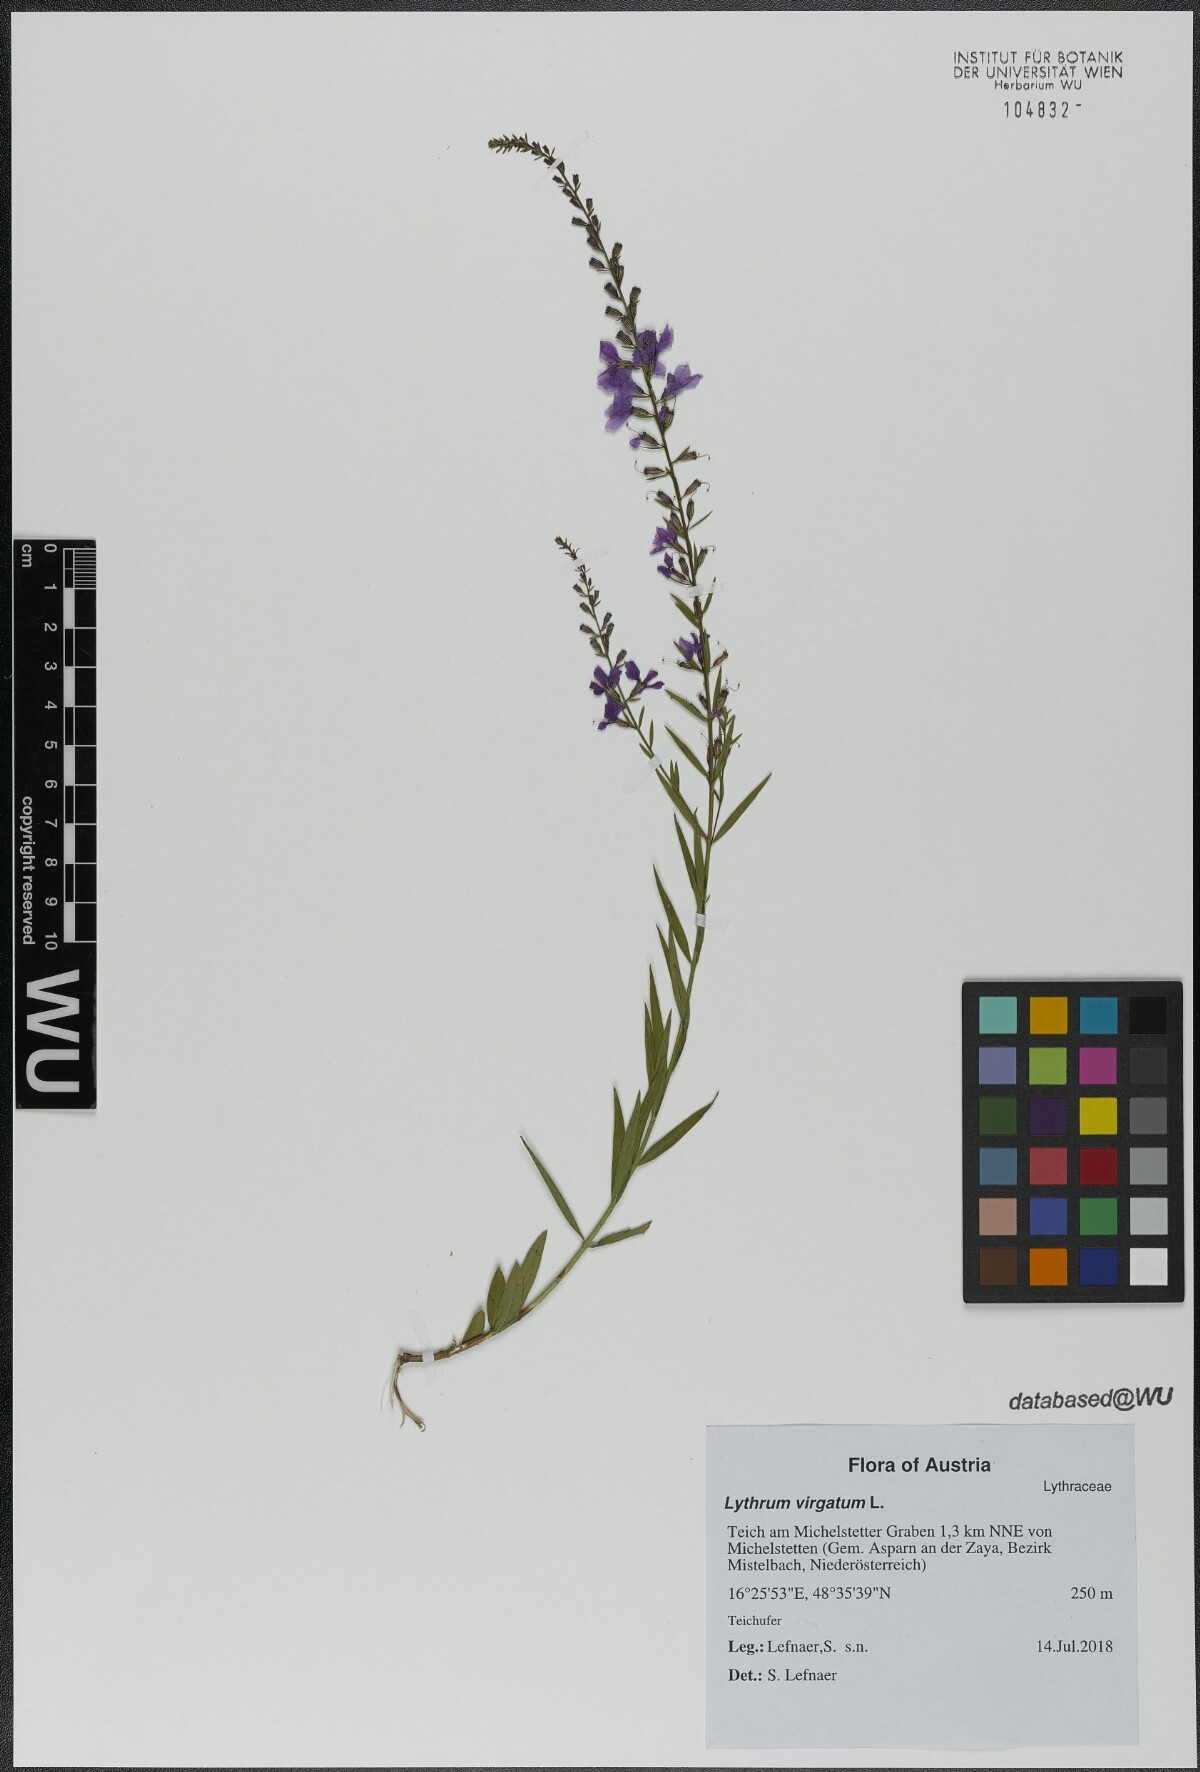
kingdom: Plantae
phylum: Tracheophyta
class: Magnoliopsida
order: Myrtales
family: Lythraceae
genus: Lythrum
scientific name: Lythrum virgatum
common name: European wand loosestrife
